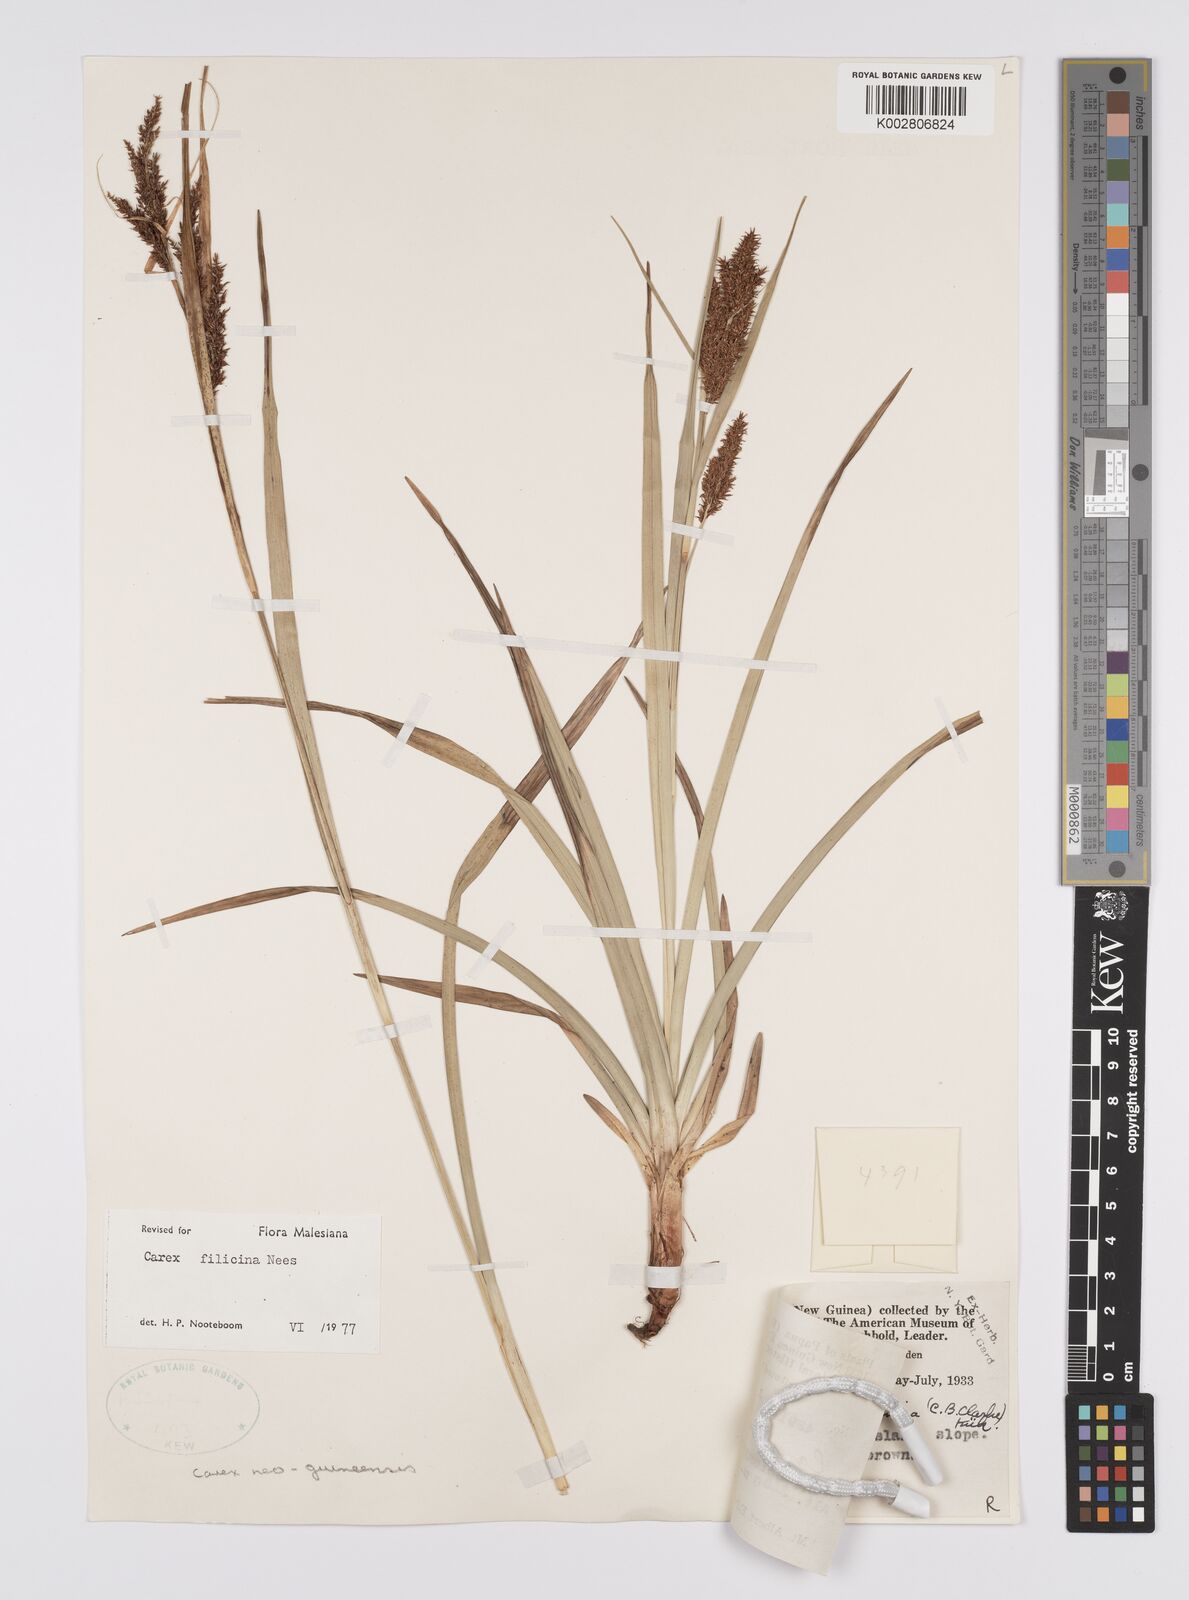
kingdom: Plantae
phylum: Tracheophyta
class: Liliopsida
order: Poales
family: Cyperaceae
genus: Carex
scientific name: Carex filicina
